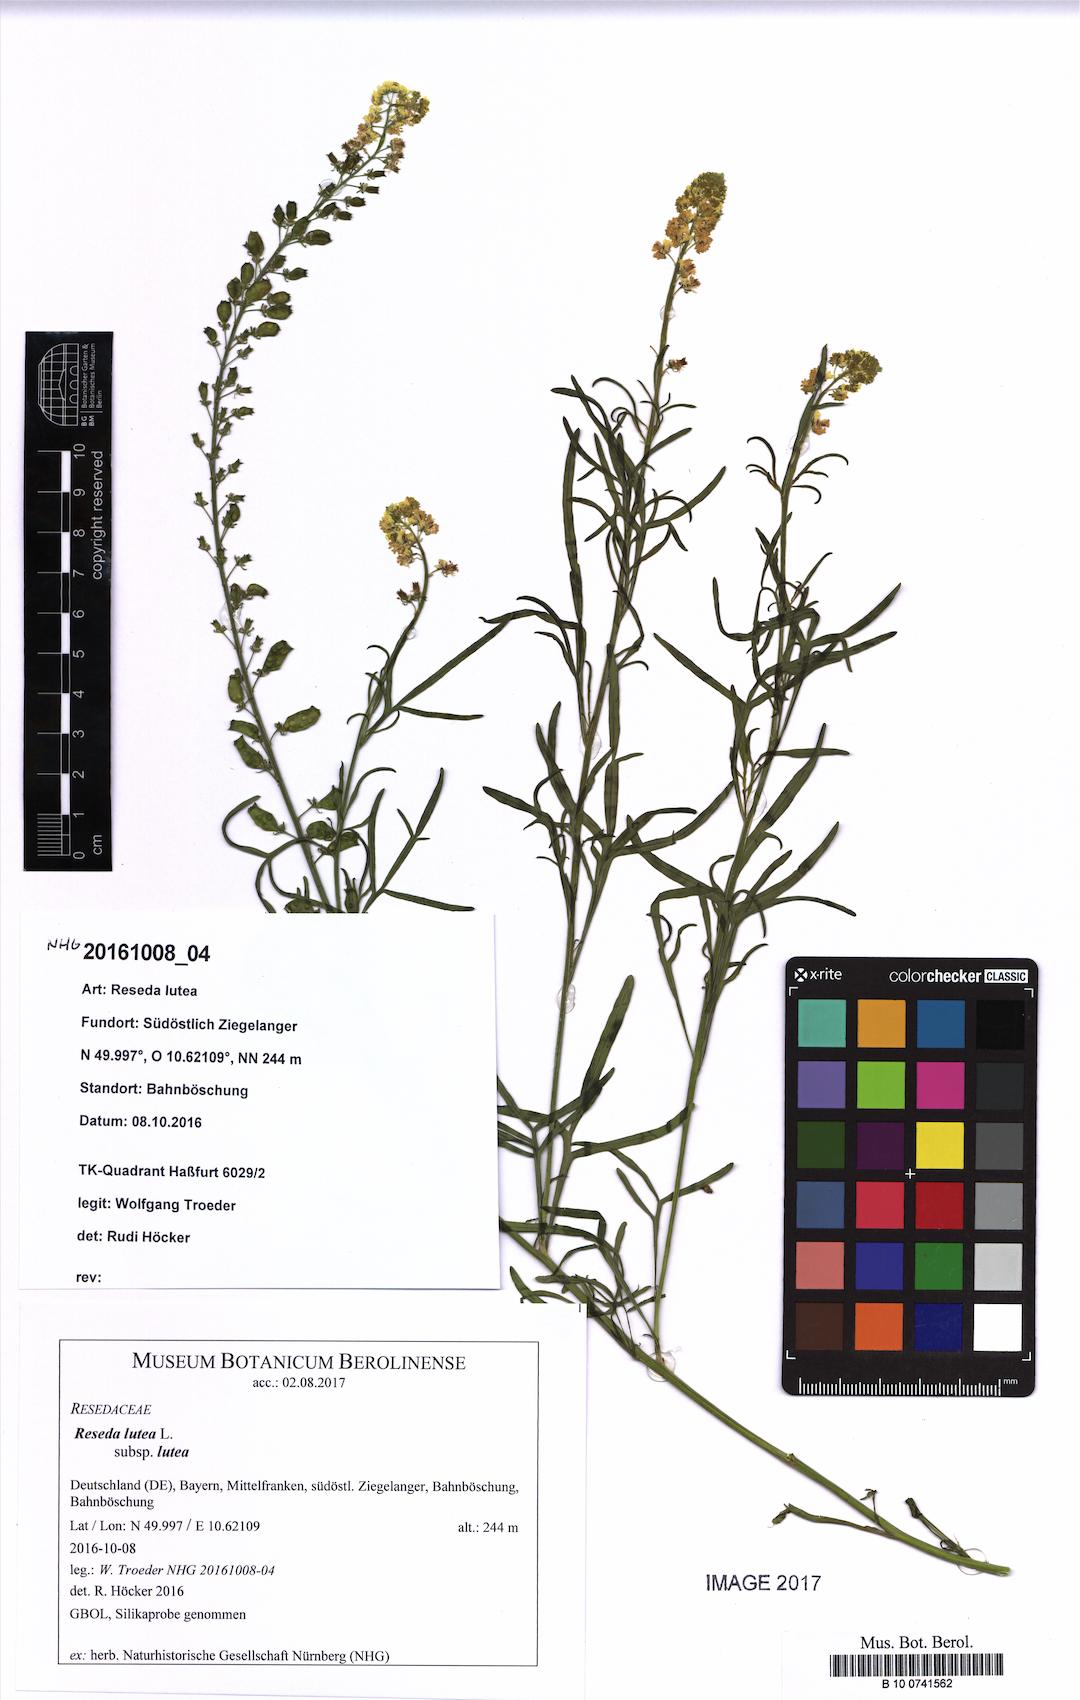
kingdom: Plantae
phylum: Tracheophyta
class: Magnoliopsida
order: Brassicales
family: Resedaceae
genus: Reseda
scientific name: Reseda lutea
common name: Wild mignonette
